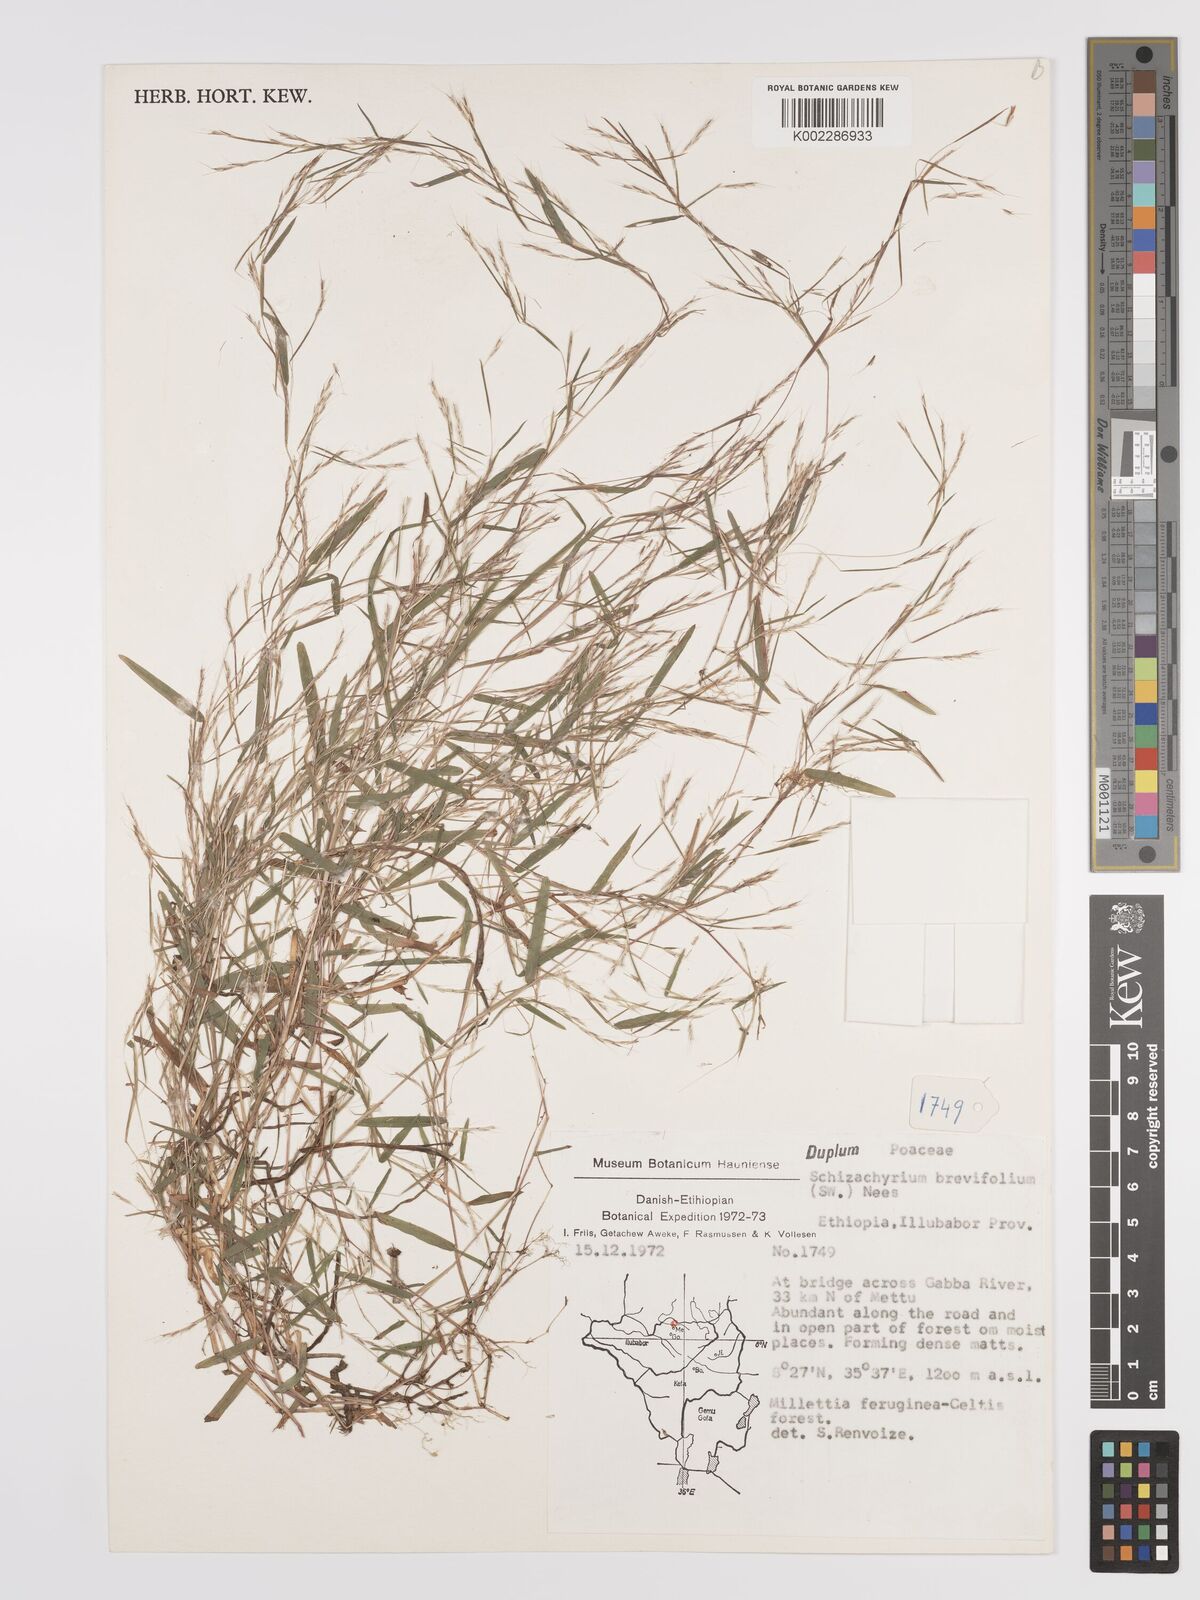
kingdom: Plantae
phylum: Tracheophyta
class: Liliopsida
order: Poales
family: Poaceae
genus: Schizachyrium
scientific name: Schizachyrium brevifolium
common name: Serillo dulce
